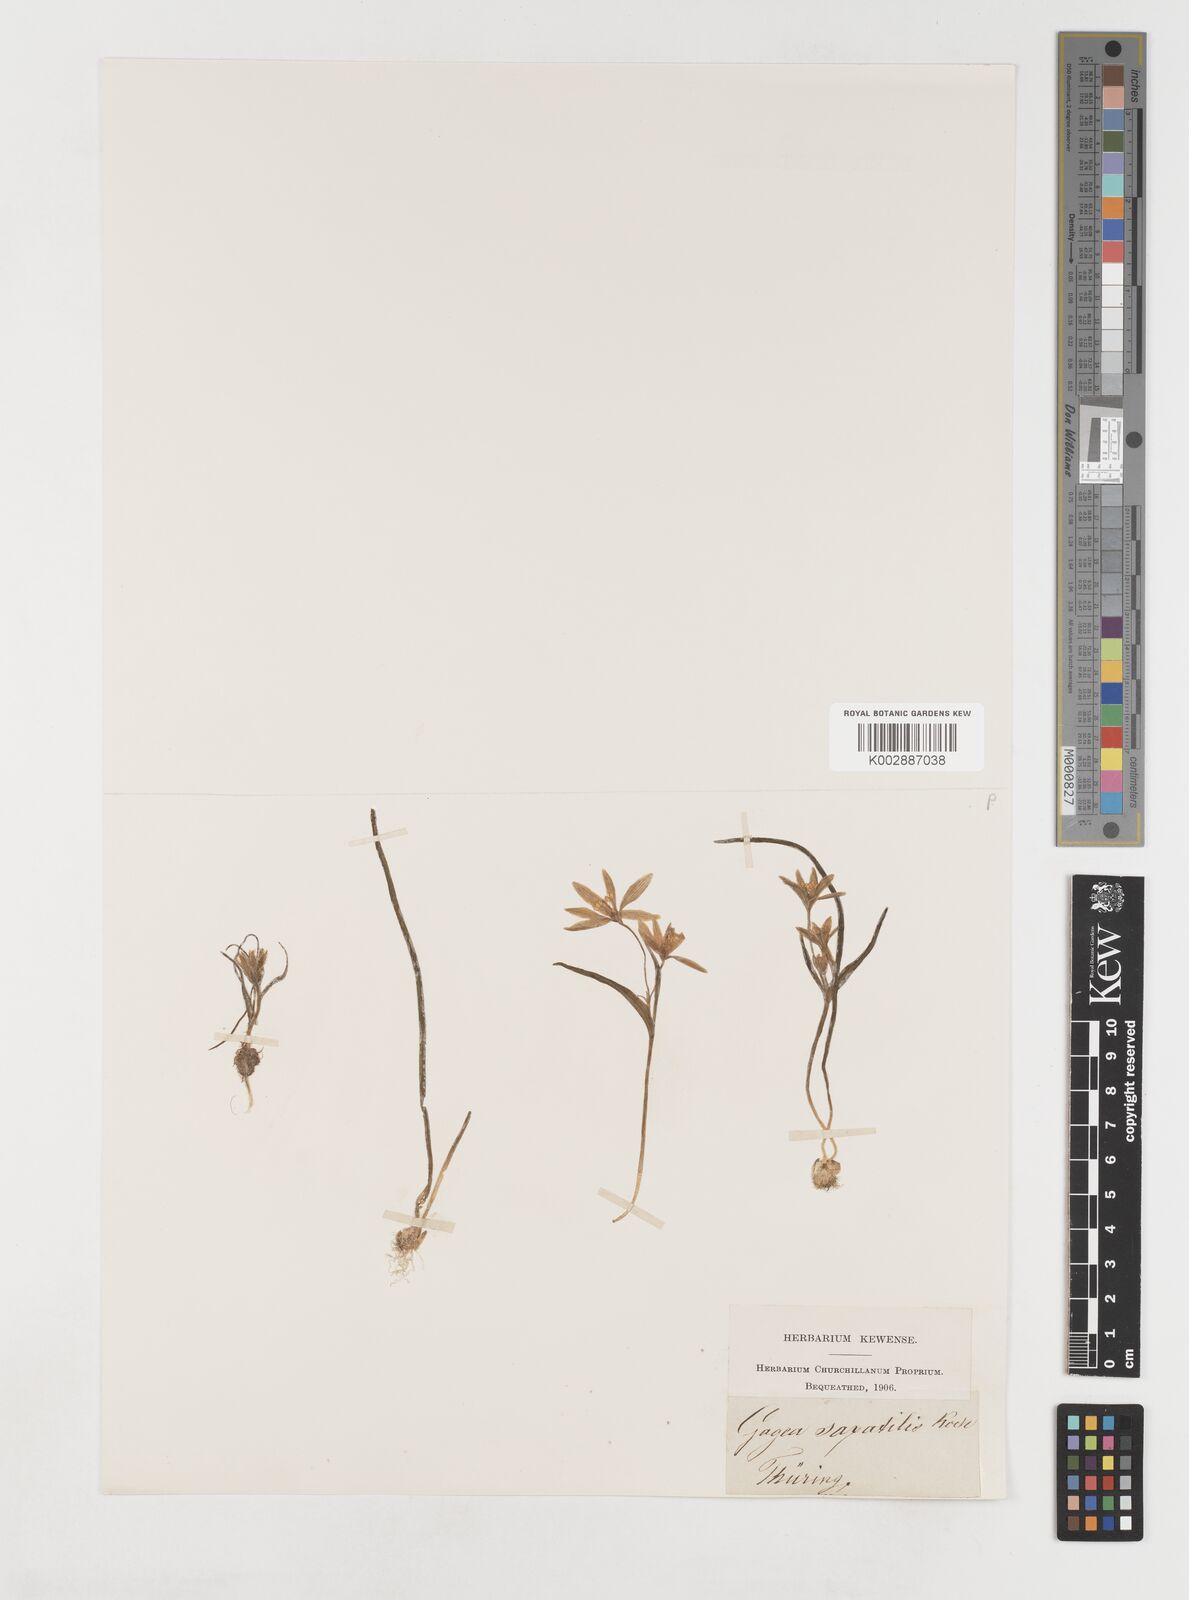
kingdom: Plantae
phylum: Tracheophyta
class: Liliopsida
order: Liliales
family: Liliaceae
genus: Gagea
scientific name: Gagea bohemica
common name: Early star-of-bethlehem
